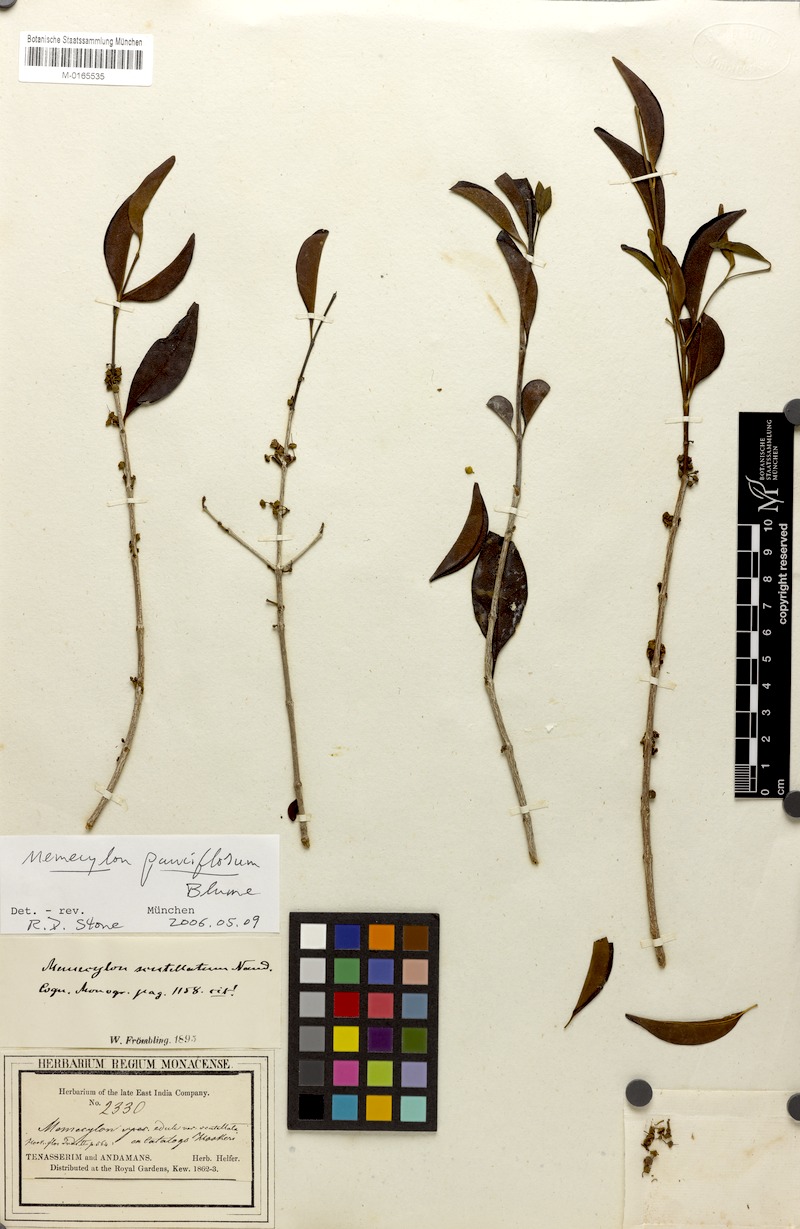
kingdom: Plantae
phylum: Tracheophyta
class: Magnoliopsida
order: Myrtales
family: Melastomataceae
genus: Memecylon
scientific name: Memecylon pauciflorum
